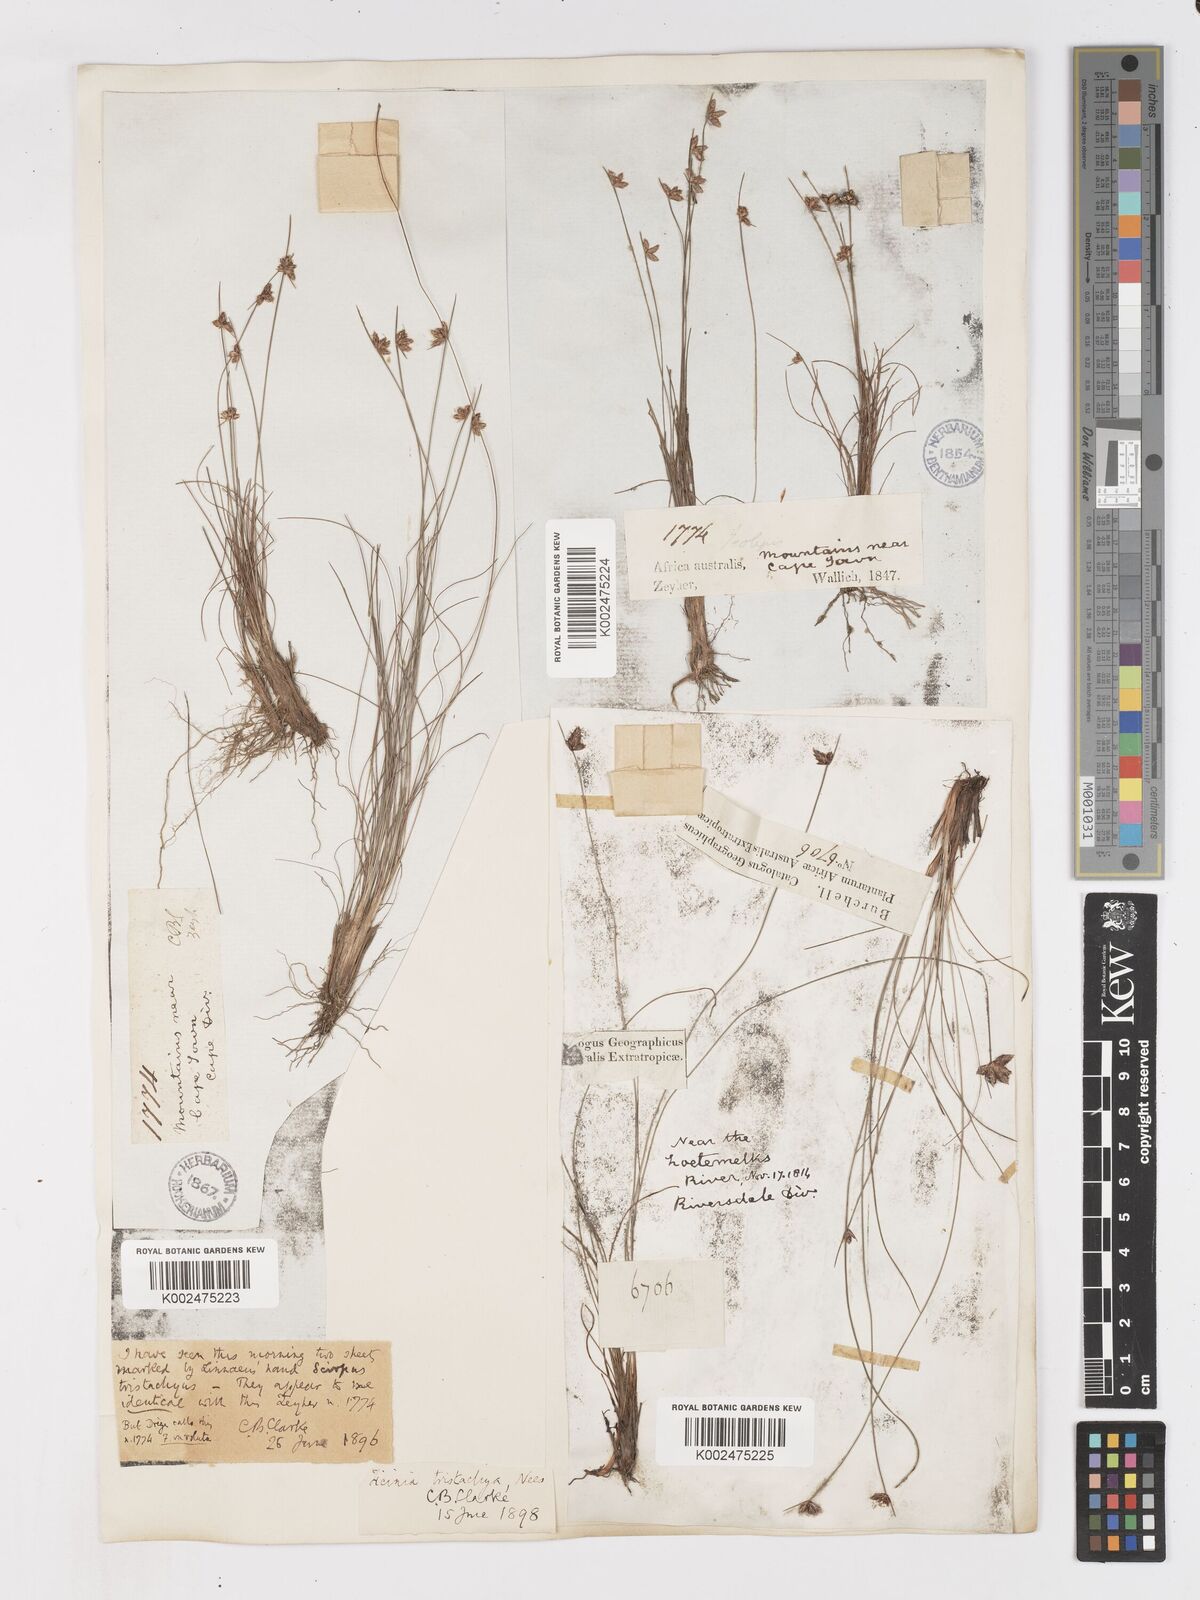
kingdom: Plantae
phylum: Tracheophyta
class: Liliopsida
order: Poales
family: Cyperaceae
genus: Ficinia
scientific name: Ficinia tristachya
